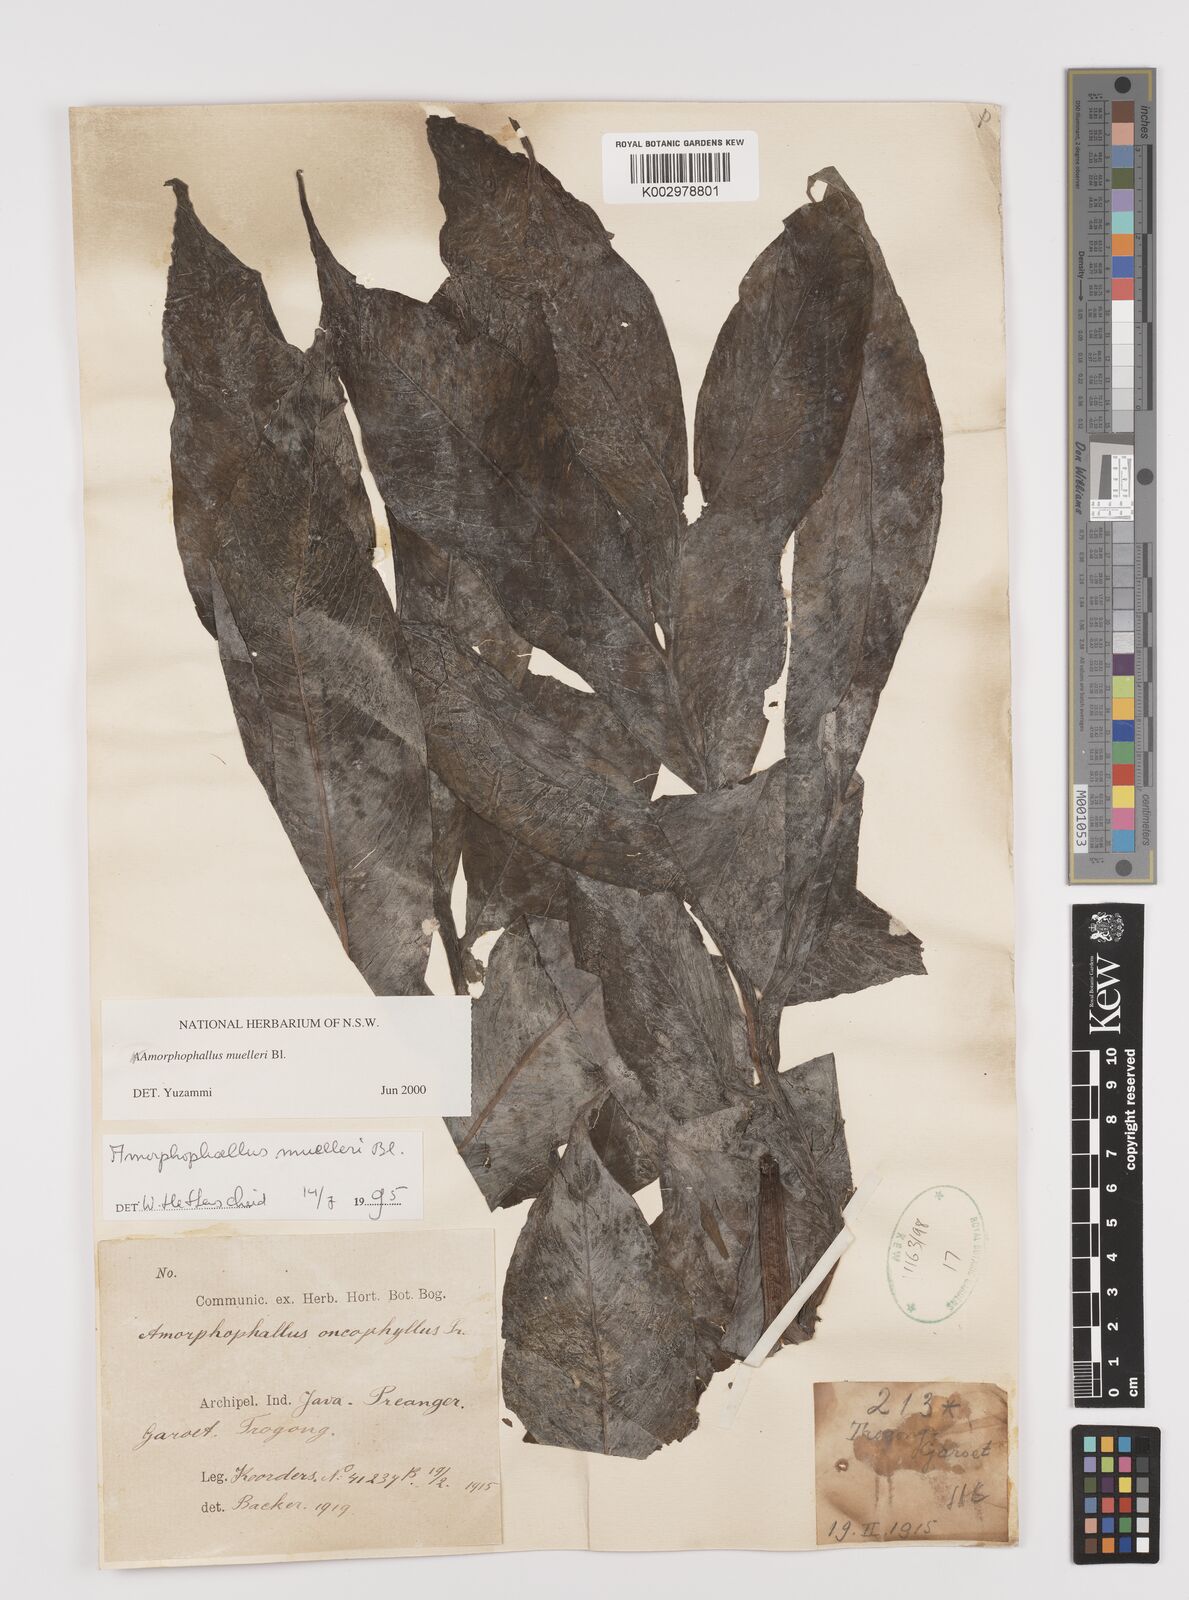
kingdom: Plantae
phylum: Tracheophyta
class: Liliopsida
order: Alismatales
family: Araceae
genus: Amorphophallus
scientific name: Amorphophallus muelleri
